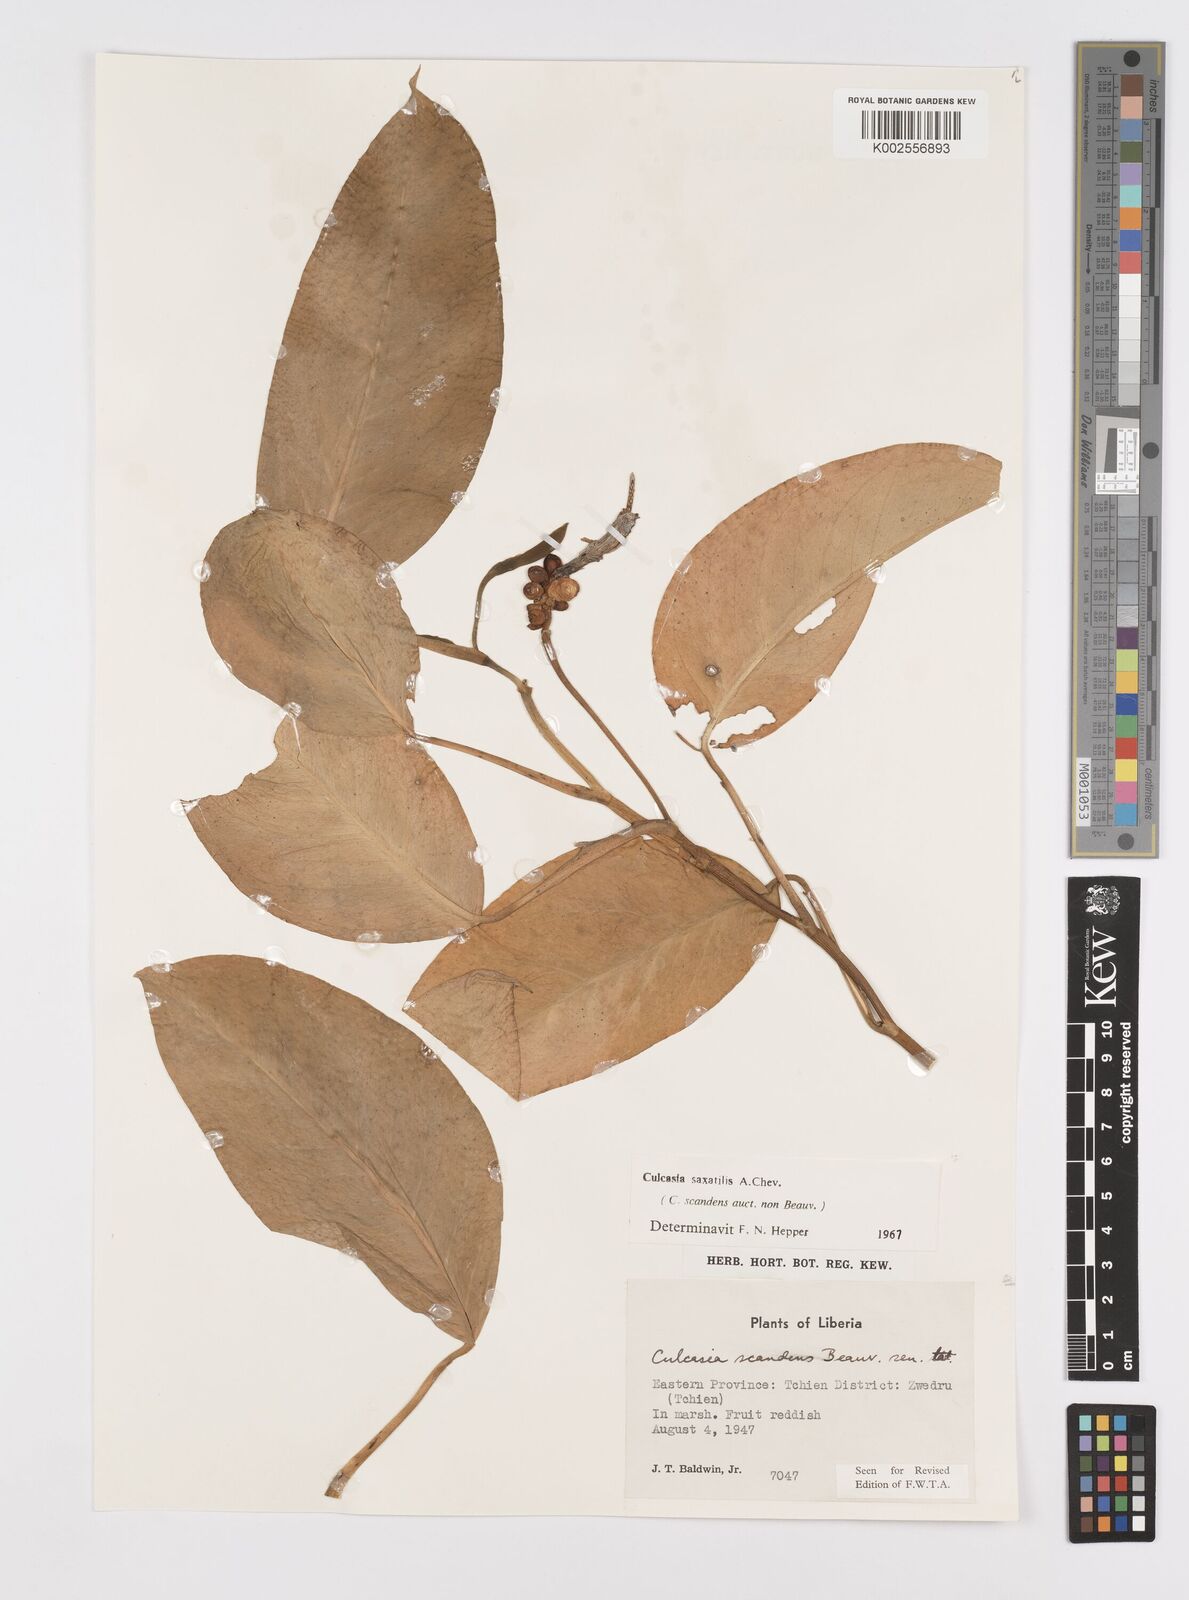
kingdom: Plantae
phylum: Tracheophyta
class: Liliopsida
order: Alismatales
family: Araceae
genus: Culcasia
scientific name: Culcasia scandens
